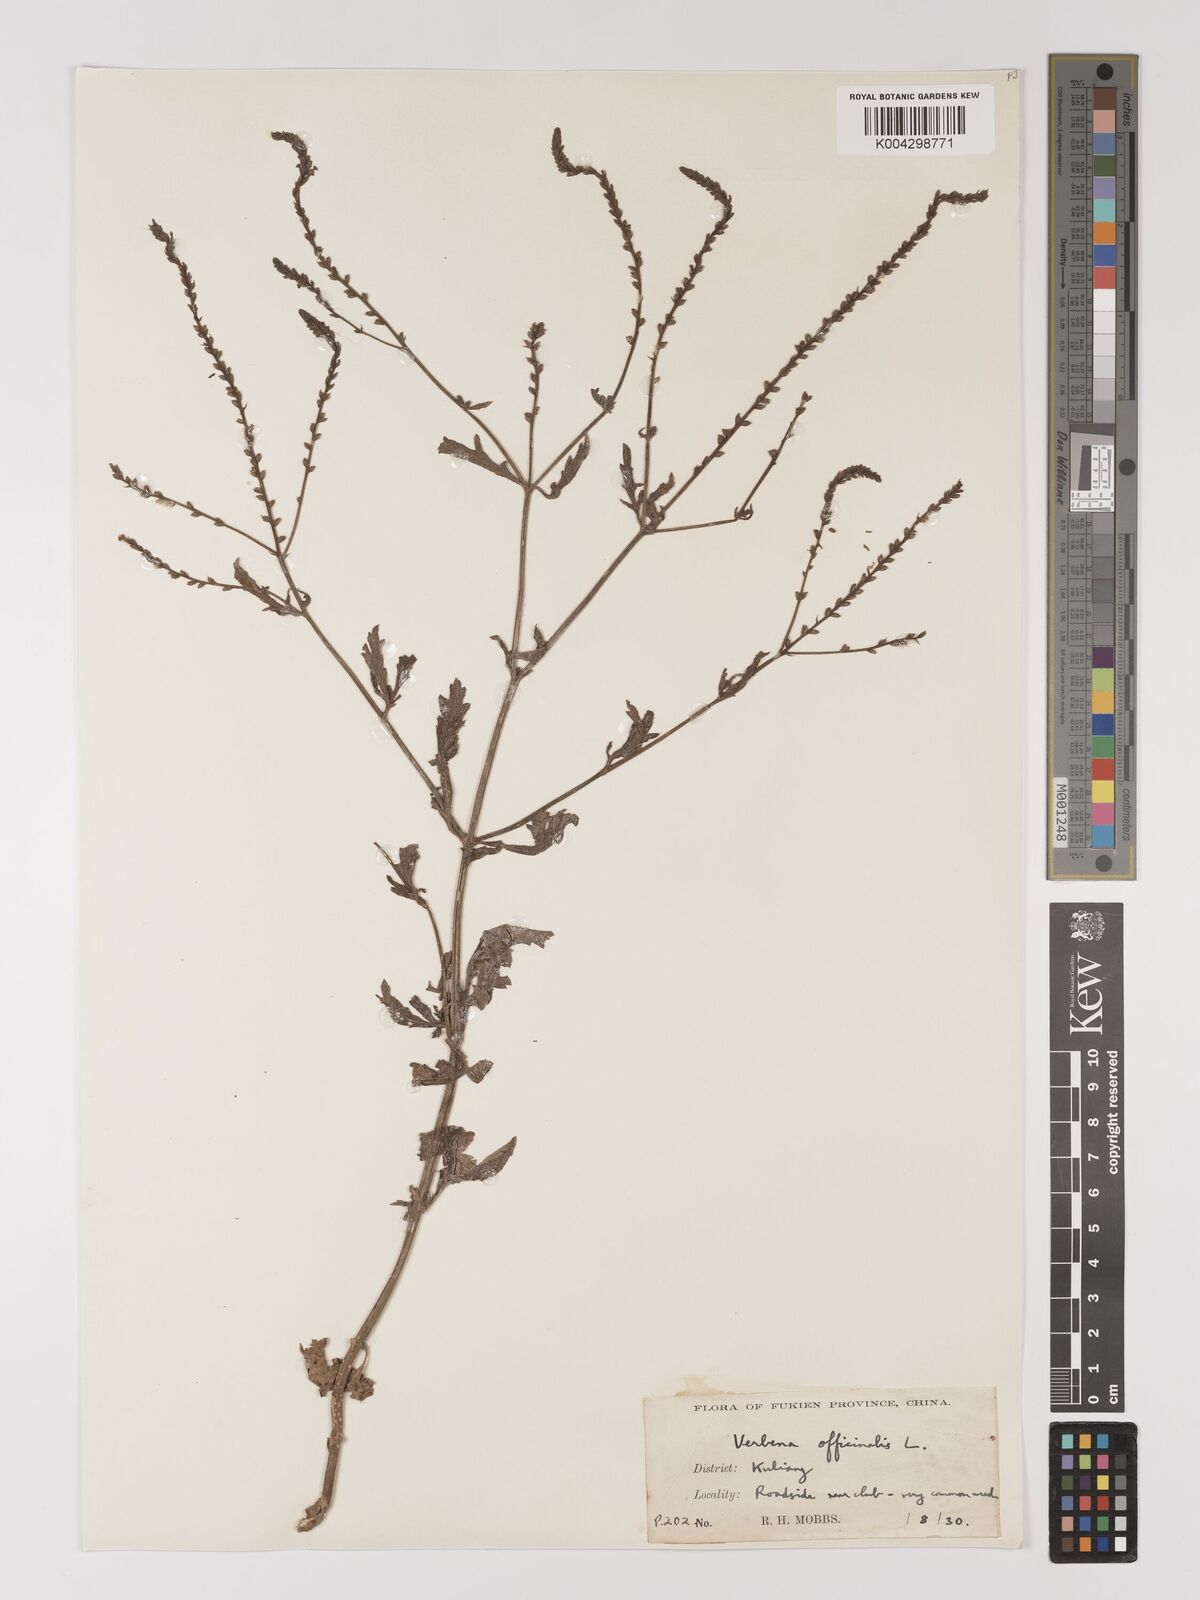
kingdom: Plantae
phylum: Tracheophyta
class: Magnoliopsida
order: Lamiales
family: Verbenaceae
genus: Verbena
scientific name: Verbena officinalis
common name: Vervain
